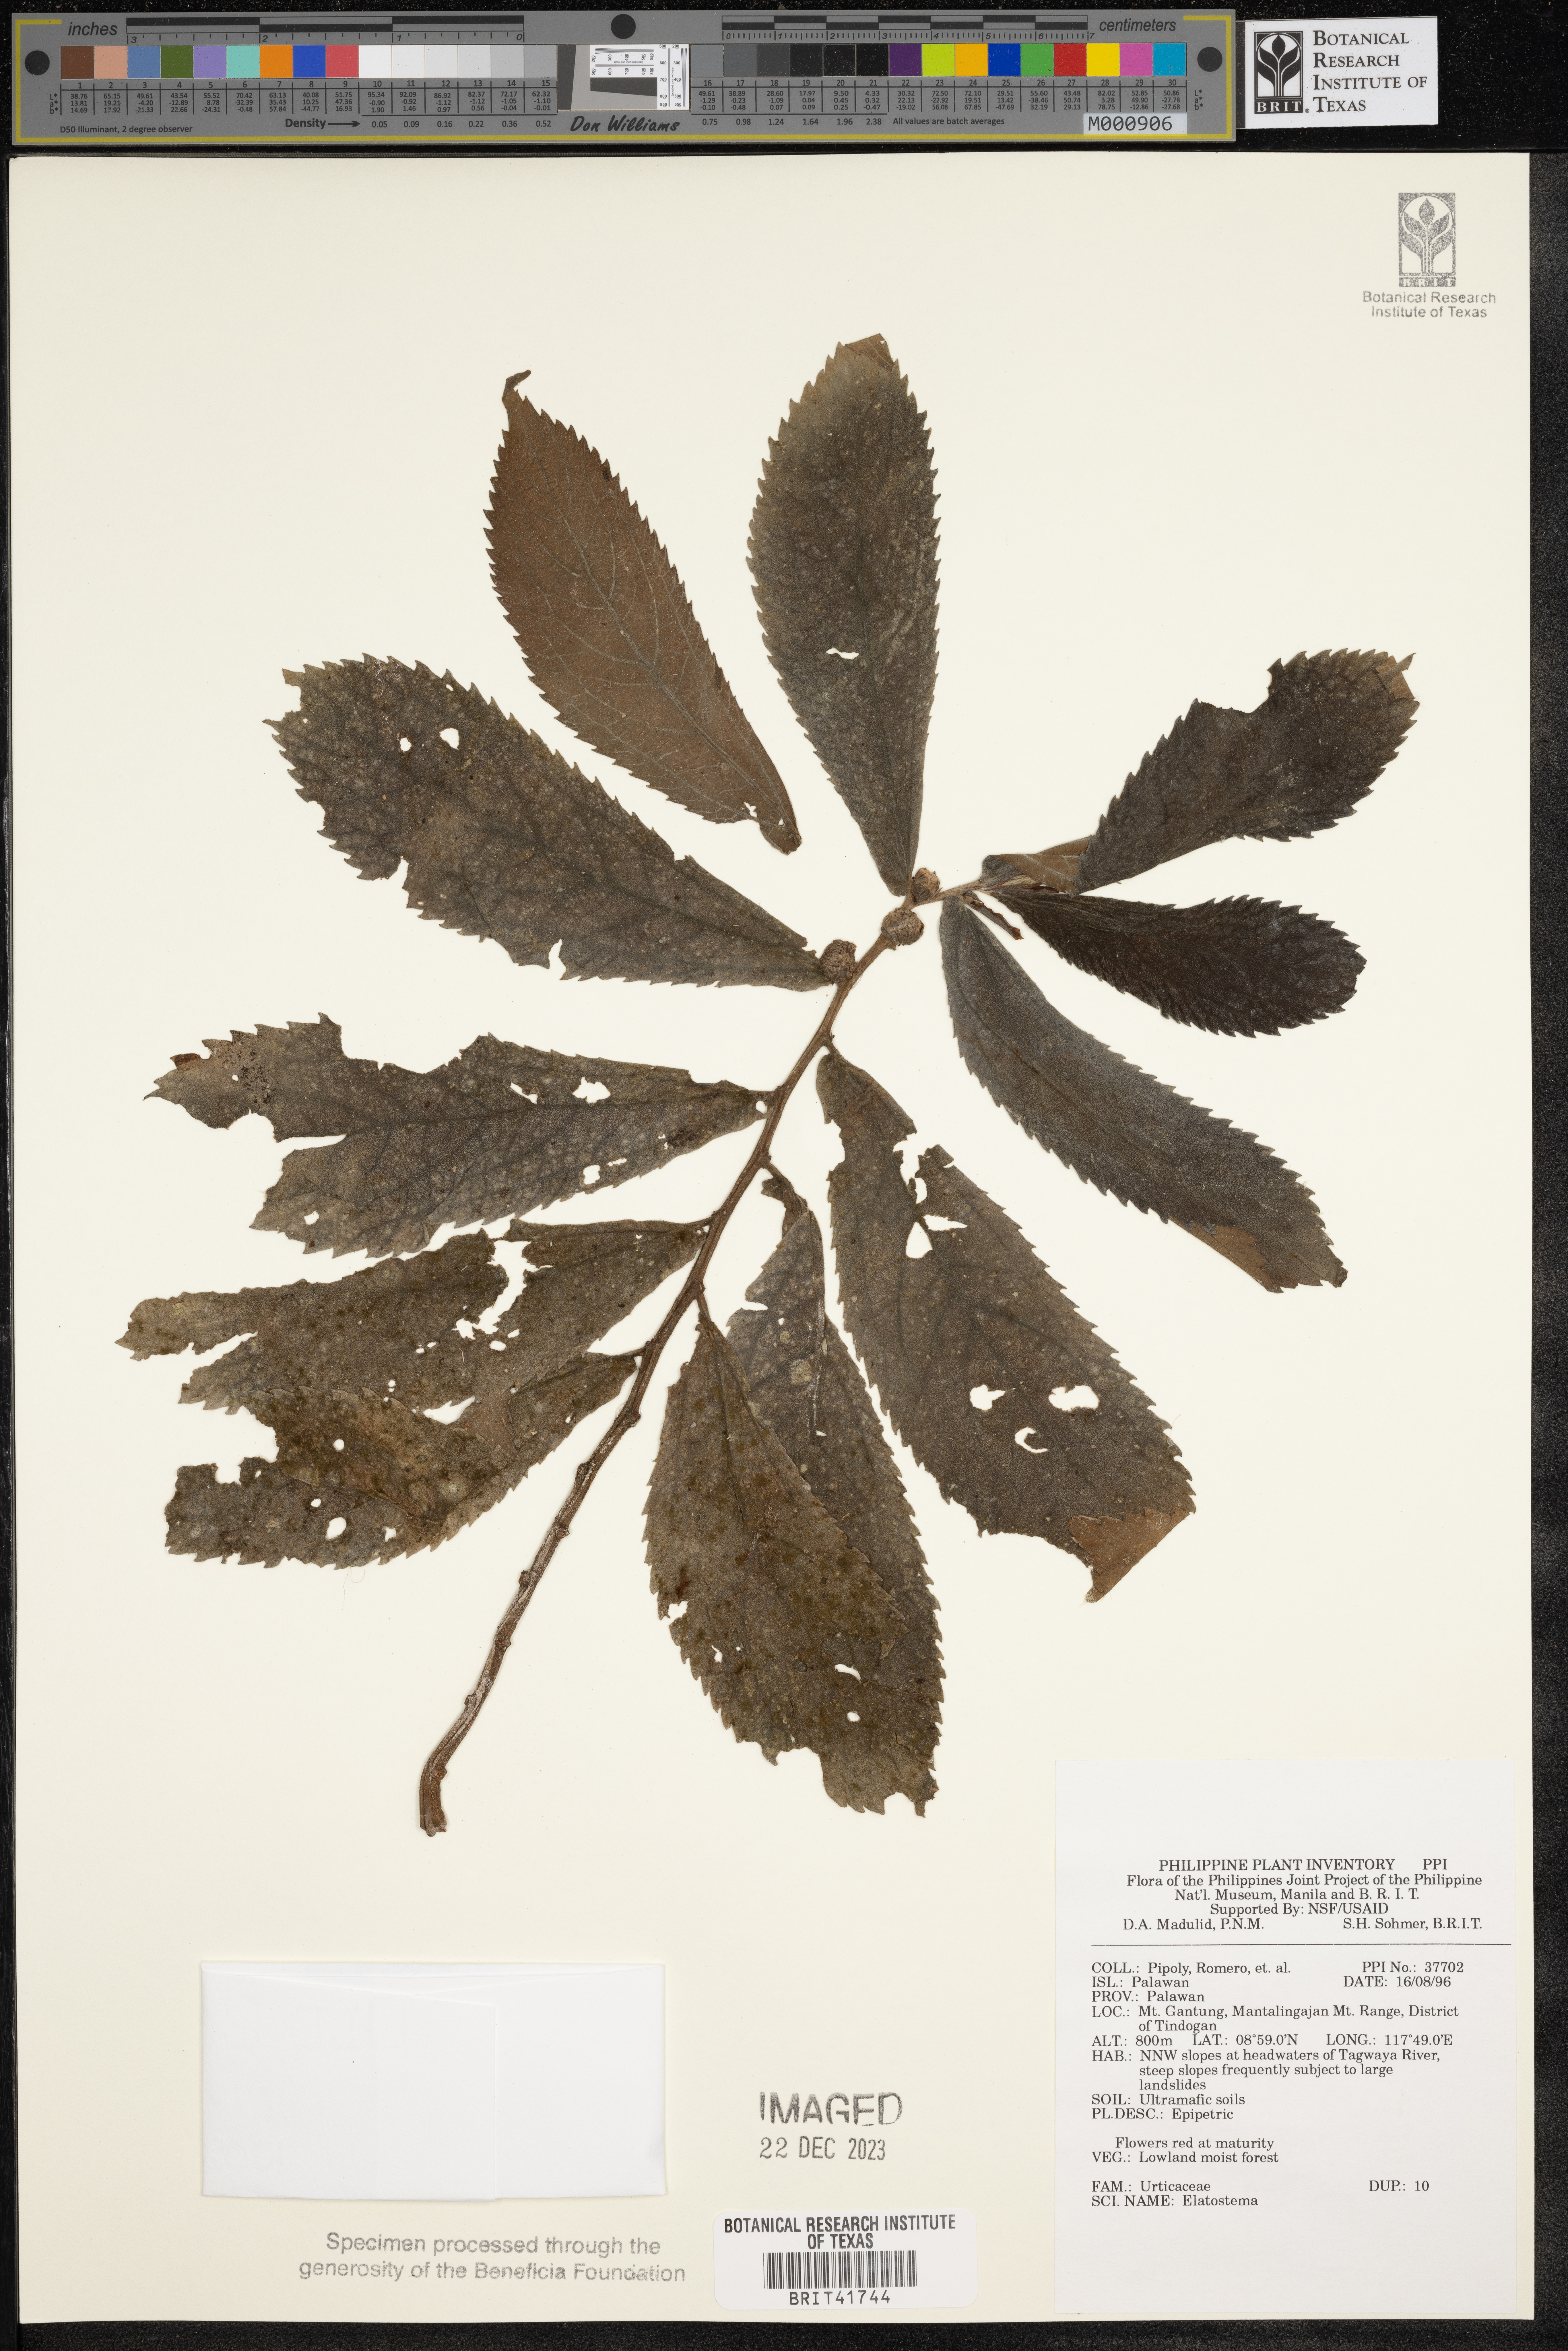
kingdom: Plantae
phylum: Tracheophyta
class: Magnoliopsida
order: Rosales
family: Urticaceae
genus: Elatostema
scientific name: Elatostema
